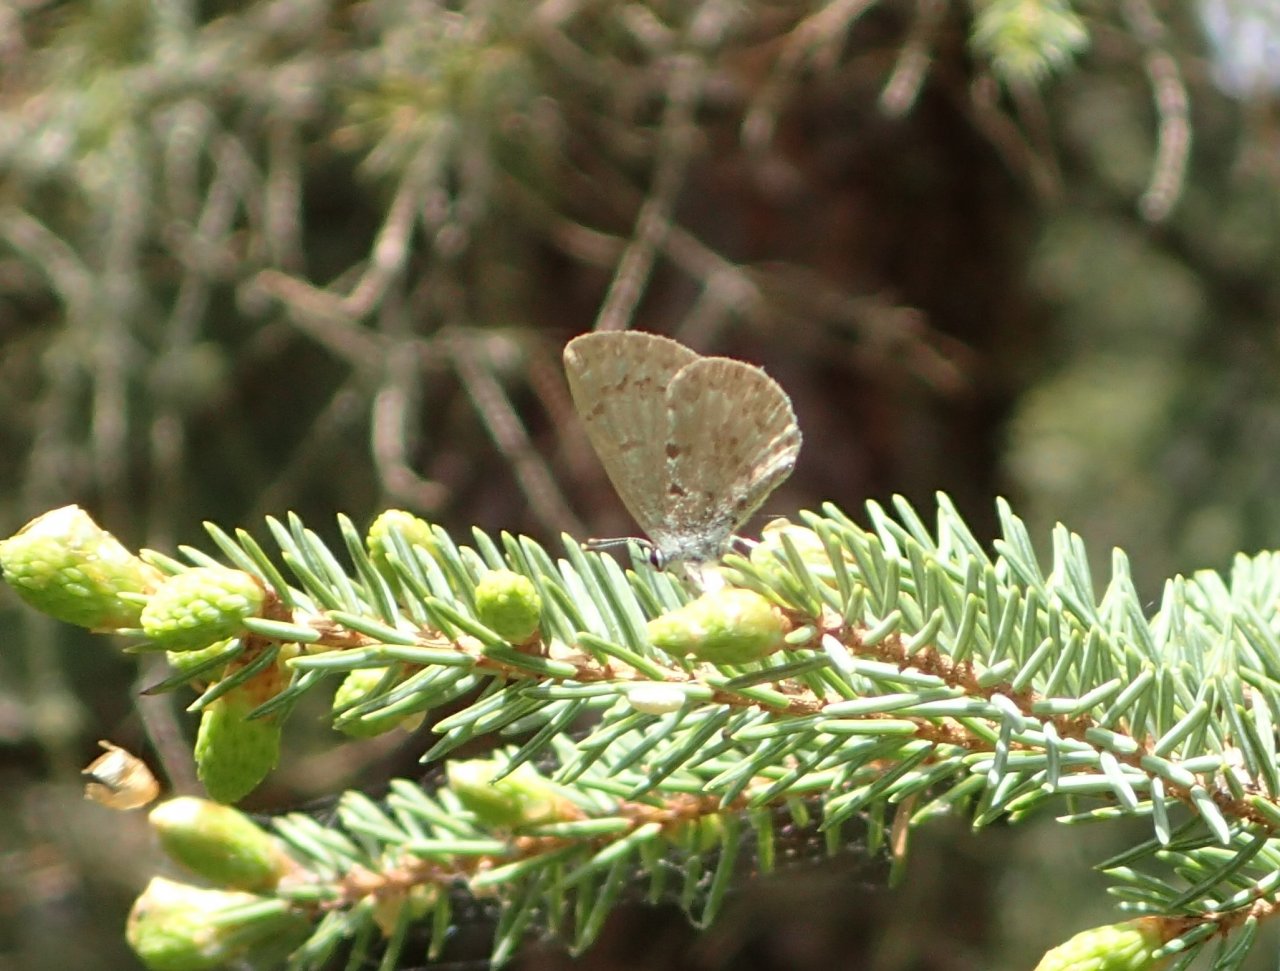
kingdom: Animalia
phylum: Arthropoda
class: Insecta
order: Lepidoptera
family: Lycaenidae
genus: Celastrina
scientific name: Celastrina lucia
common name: Northern Spring Azure
